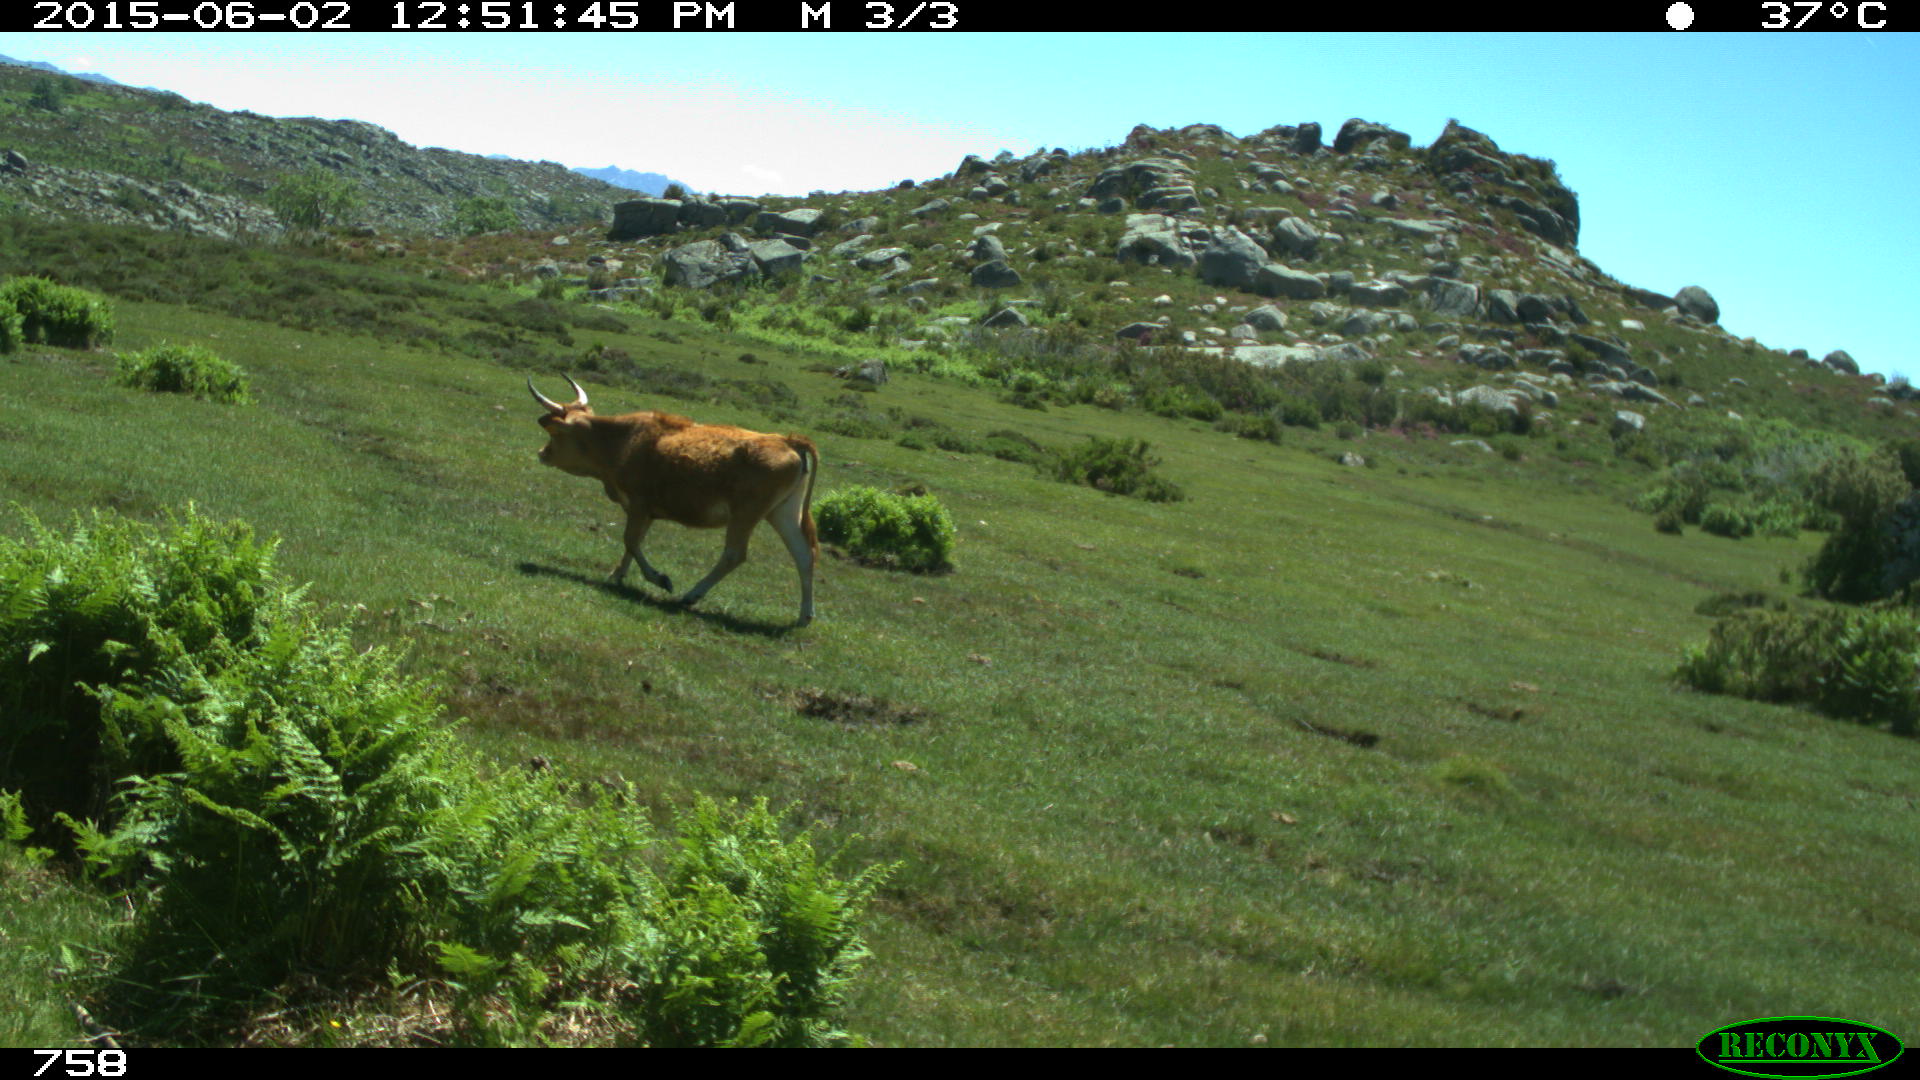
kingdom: Animalia
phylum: Chordata
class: Mammalia
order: Artiodactyla
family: Bovidae
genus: Bos
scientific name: Bos taurus
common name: Domesticated cattle
